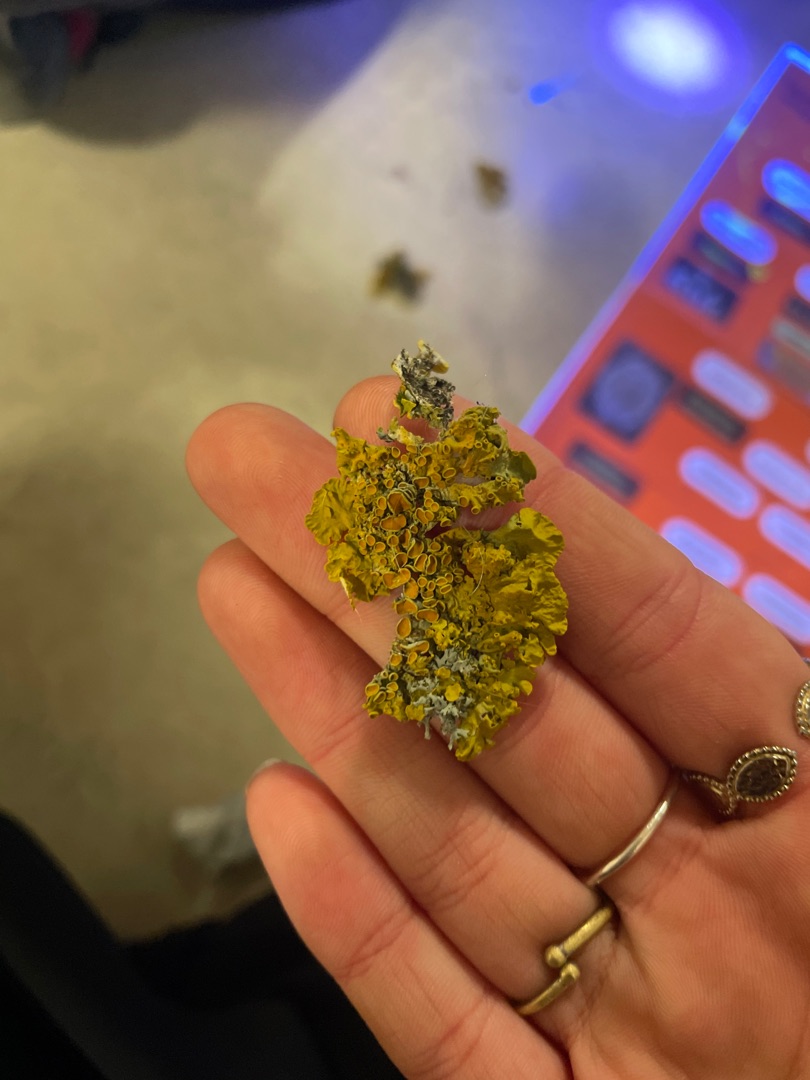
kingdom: Fungi
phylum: Ascomycota
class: Lecanoromycetes
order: Teloschistales
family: Teloschistaceae
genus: Xanthoria
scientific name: Xanthoria parietina
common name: Almindelig væggelav
